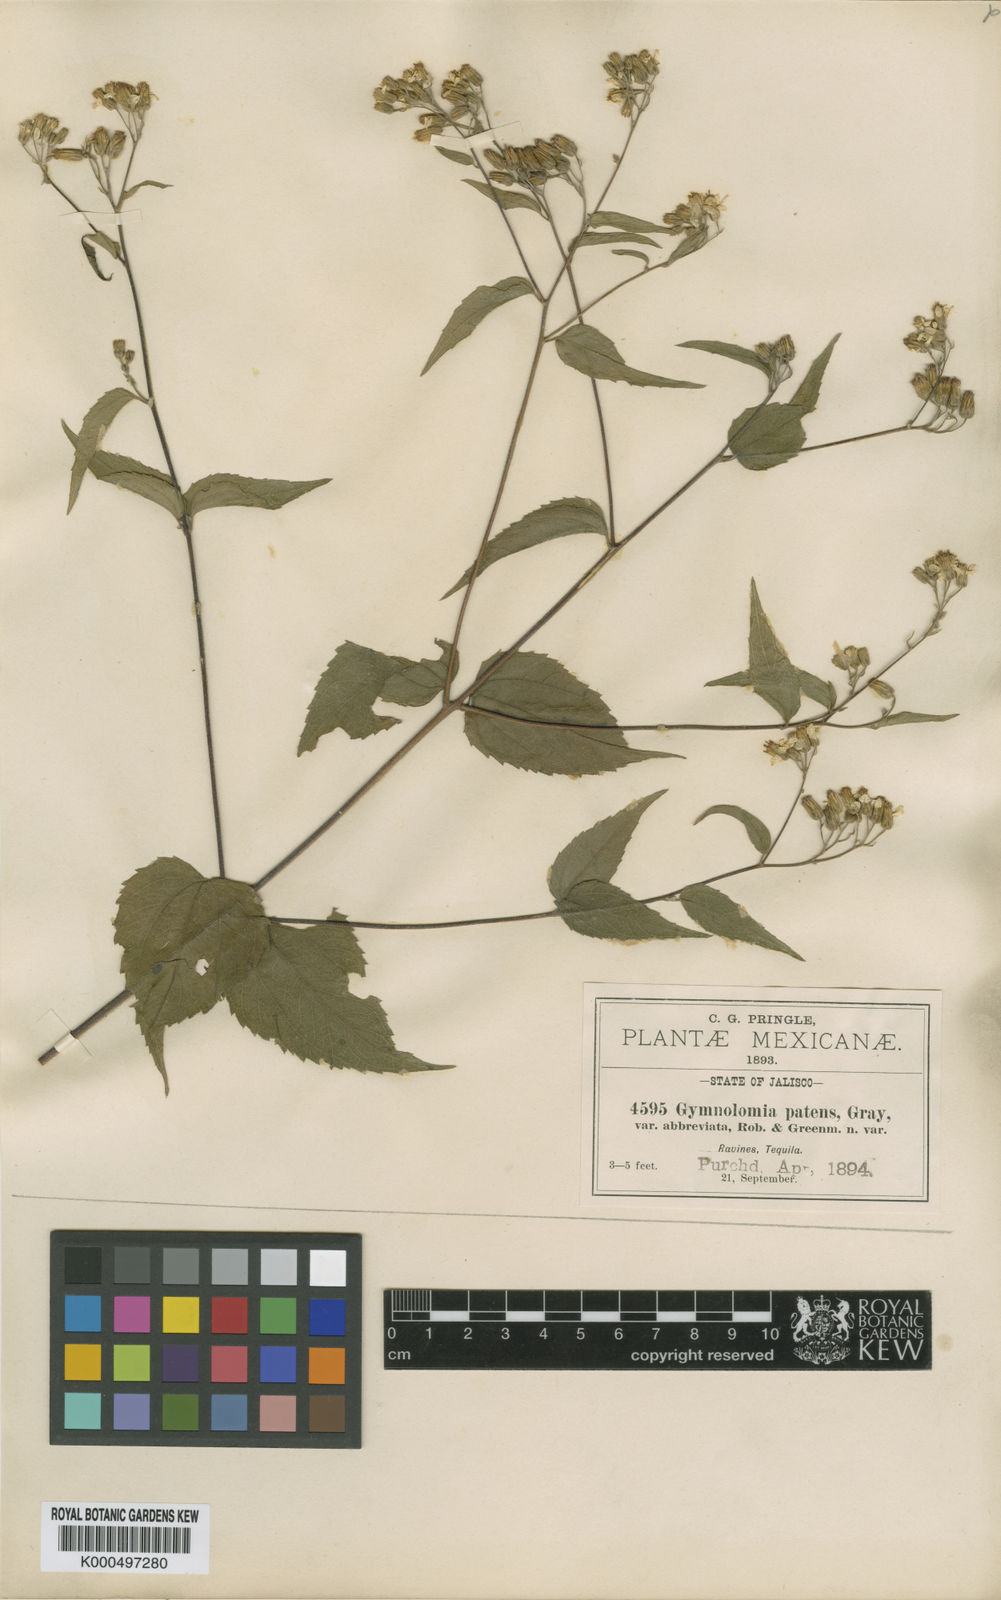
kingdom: Plantae
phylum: Tracheophyta
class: Magnoliopsida
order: Asterales
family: Asteraceae
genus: Hymenostephium
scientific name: Hymenostephium cordatum
